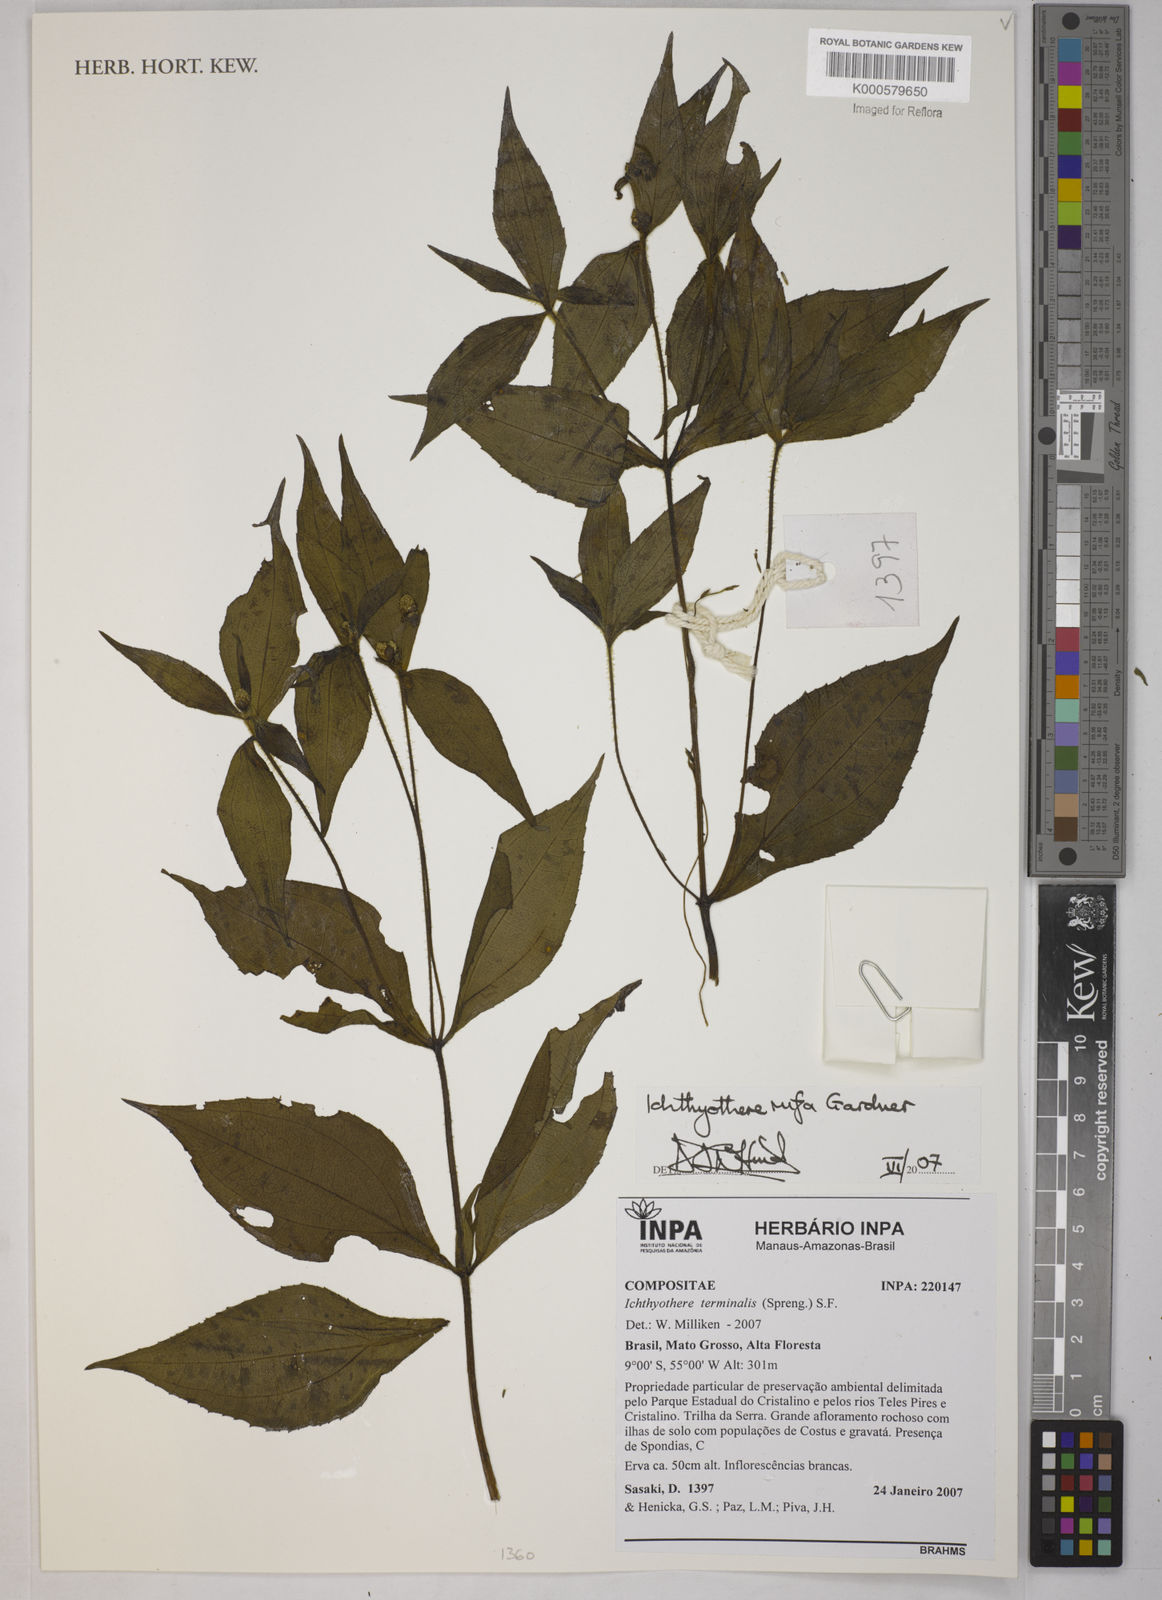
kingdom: Plantae
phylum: Tracheophyta
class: Magnoliopsida
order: Asterales
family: Asteraceae
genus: Ichthyothere
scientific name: Ichthyothere rufa
